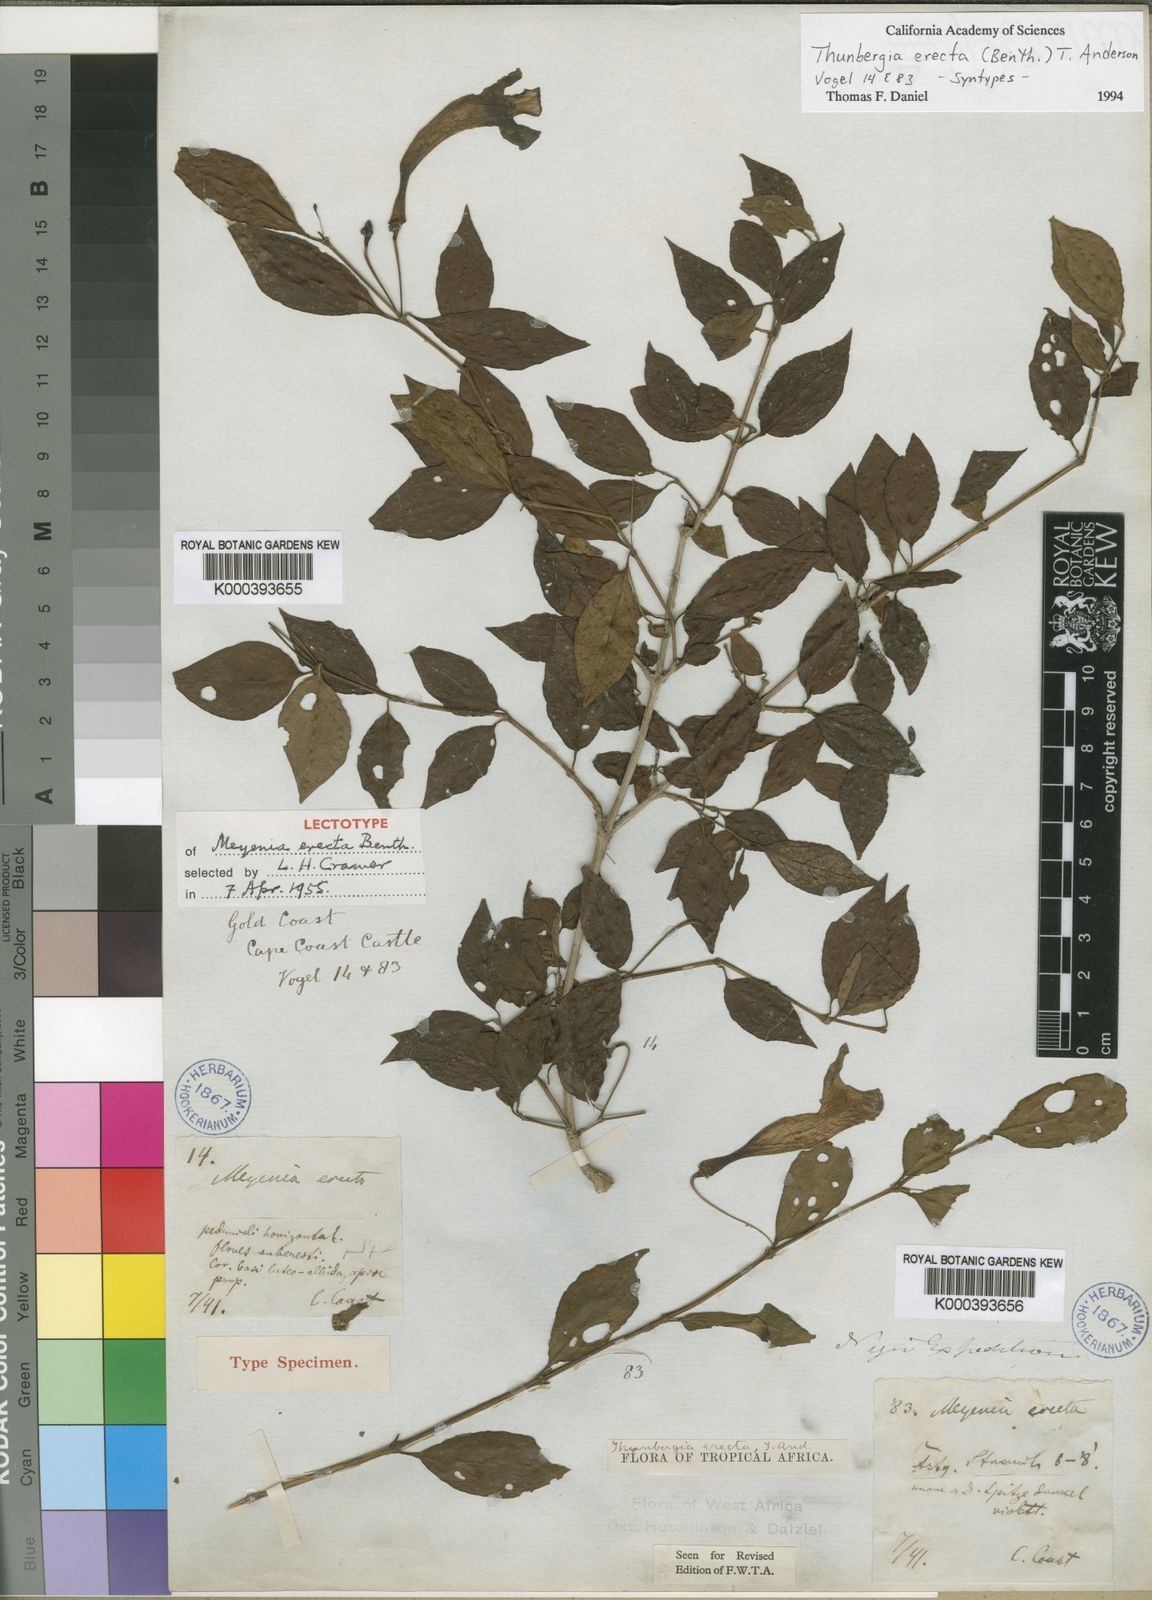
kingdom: Plantae
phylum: Tracheophyta
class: Magnoliopsida
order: Lamiales
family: Acanthaceae
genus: Thunbergia
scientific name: Thunbergia erecta
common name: Bush clockvine
